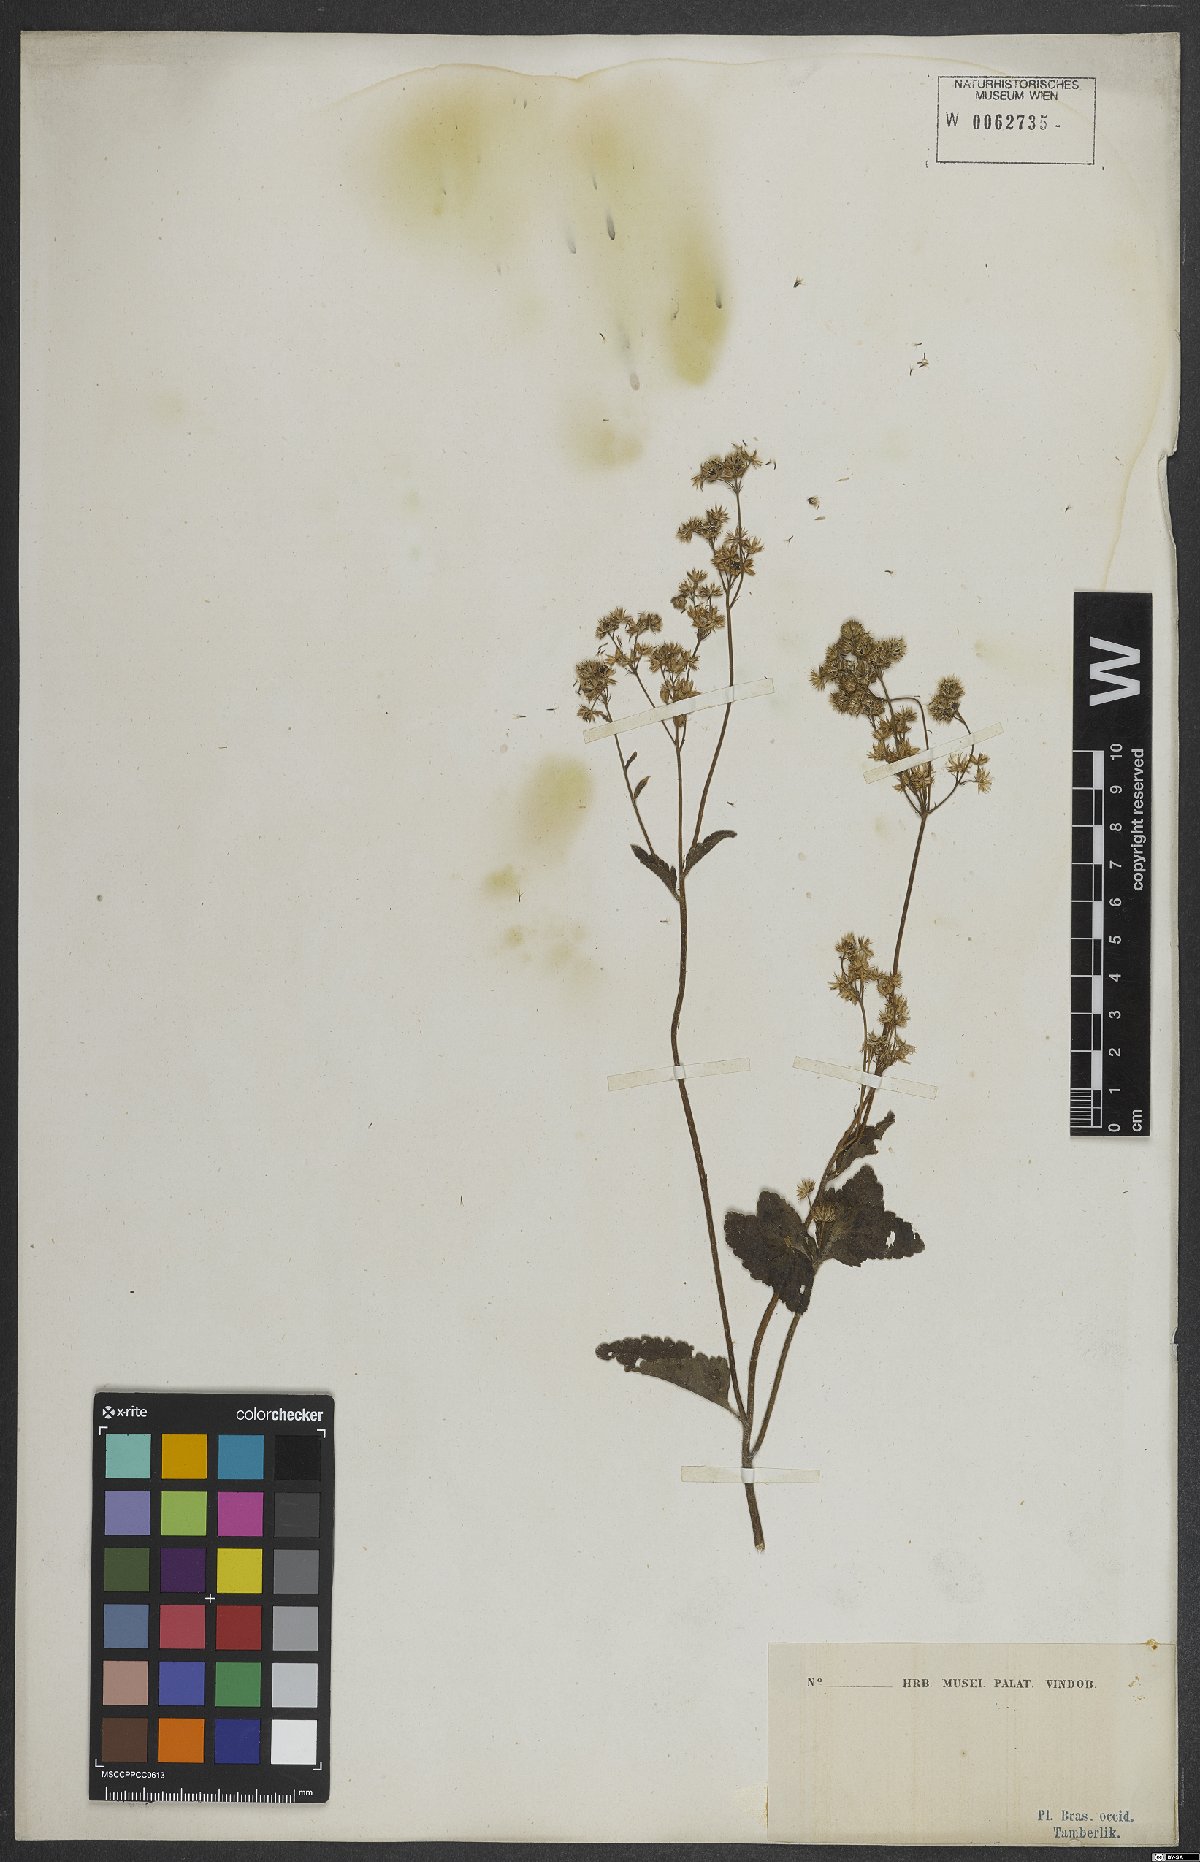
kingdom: Plantae
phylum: Tracheophyta
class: Magnoliopsida
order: Asterales
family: Asteraceae
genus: Ageratum
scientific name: Ageratum
